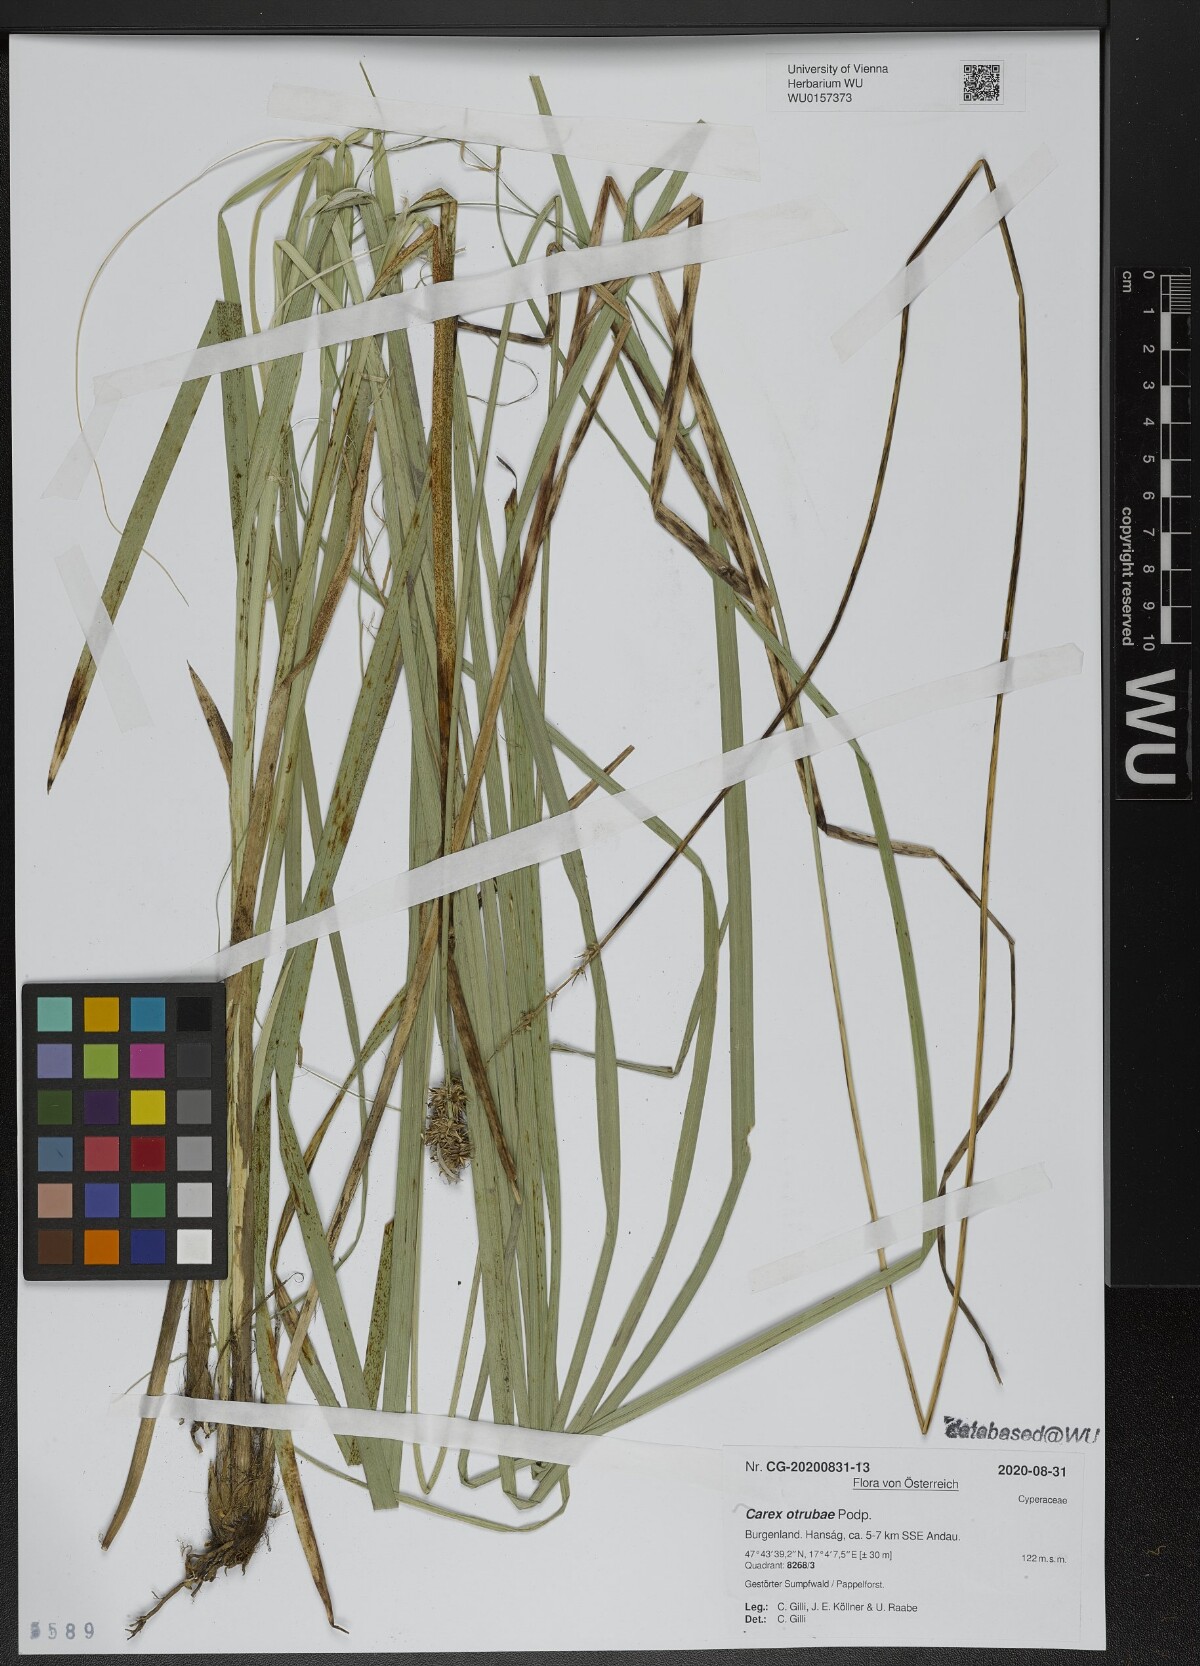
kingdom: Plantae
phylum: Tracheophyta
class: Liliopsida
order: Poales
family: Cyperaceae
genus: Carex
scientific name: Carex otrubae
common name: False fox-sedge
